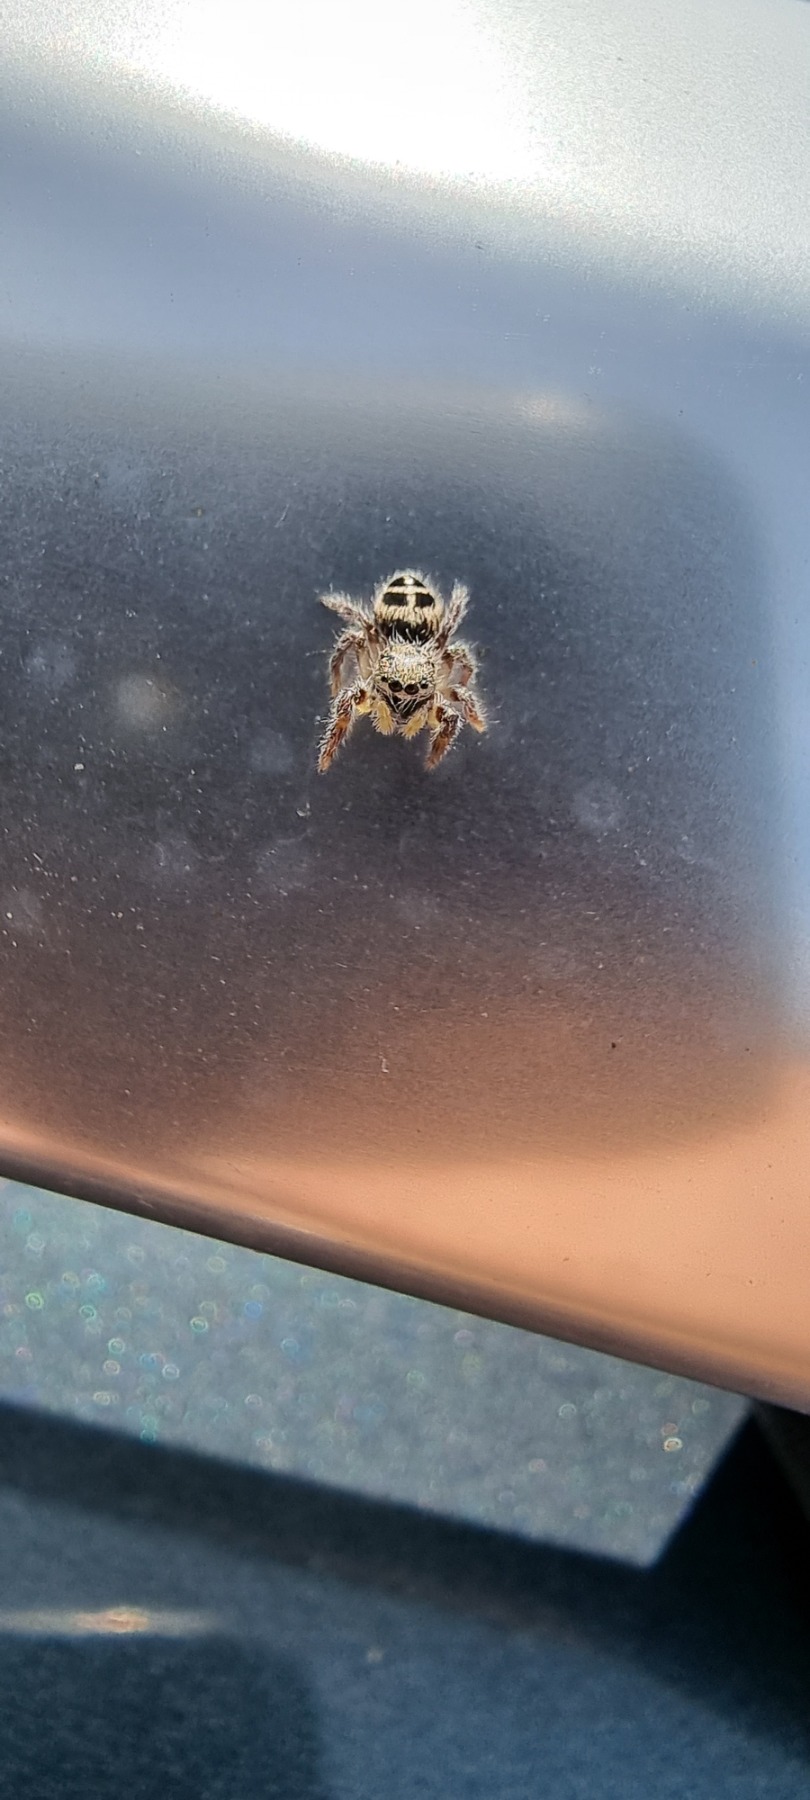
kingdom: Animalia
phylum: Arthropoda
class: Arachnida
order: Araneae
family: Salticidae
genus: Pellenes
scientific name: Pellenes tripunctatus
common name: Treplettet springedderkop
